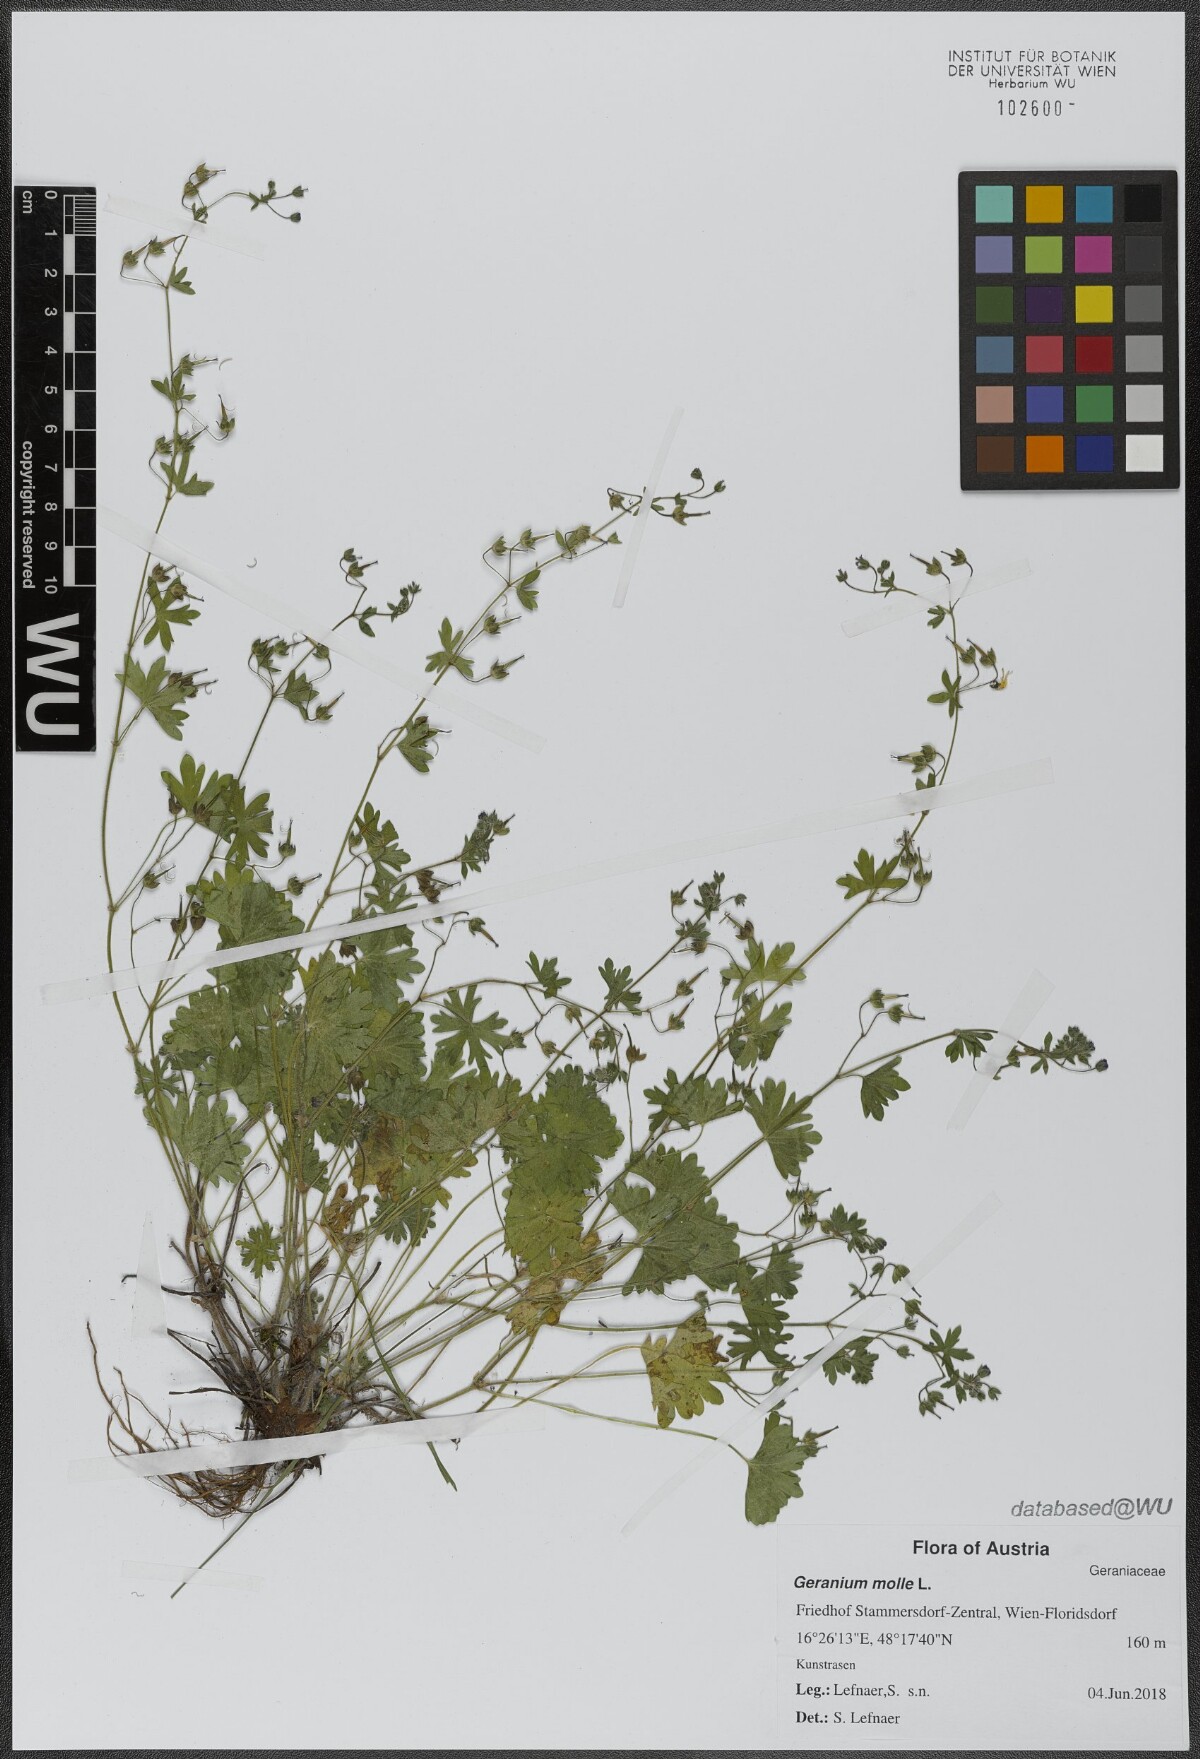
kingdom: Plantae
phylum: Tracheophyta
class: Magnoliopsida
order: Geraniales
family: Geraniaceae
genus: Geranium
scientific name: Geranium molle
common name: Dove's-foot crane's-bill
